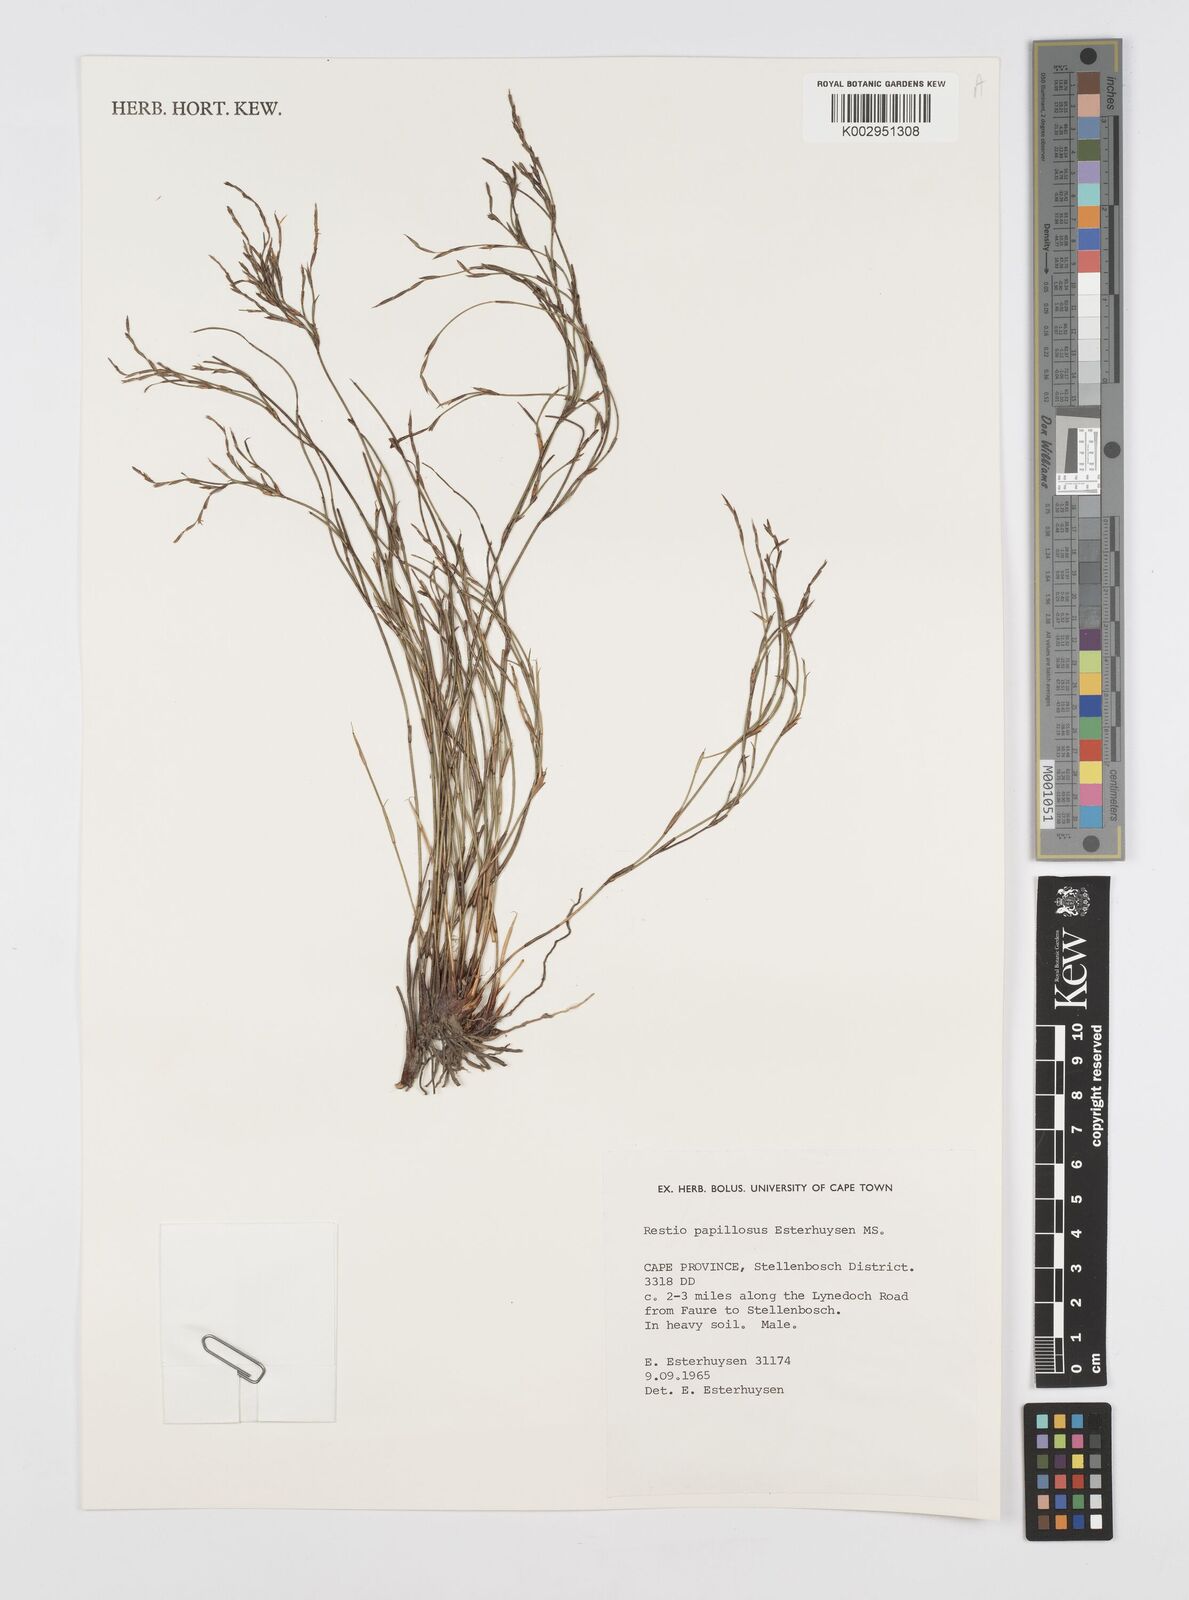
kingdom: Plantae
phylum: Tracheophyta
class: Liliopsida
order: Poales
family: Restionaceae
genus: Restio
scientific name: Restio papillosus
